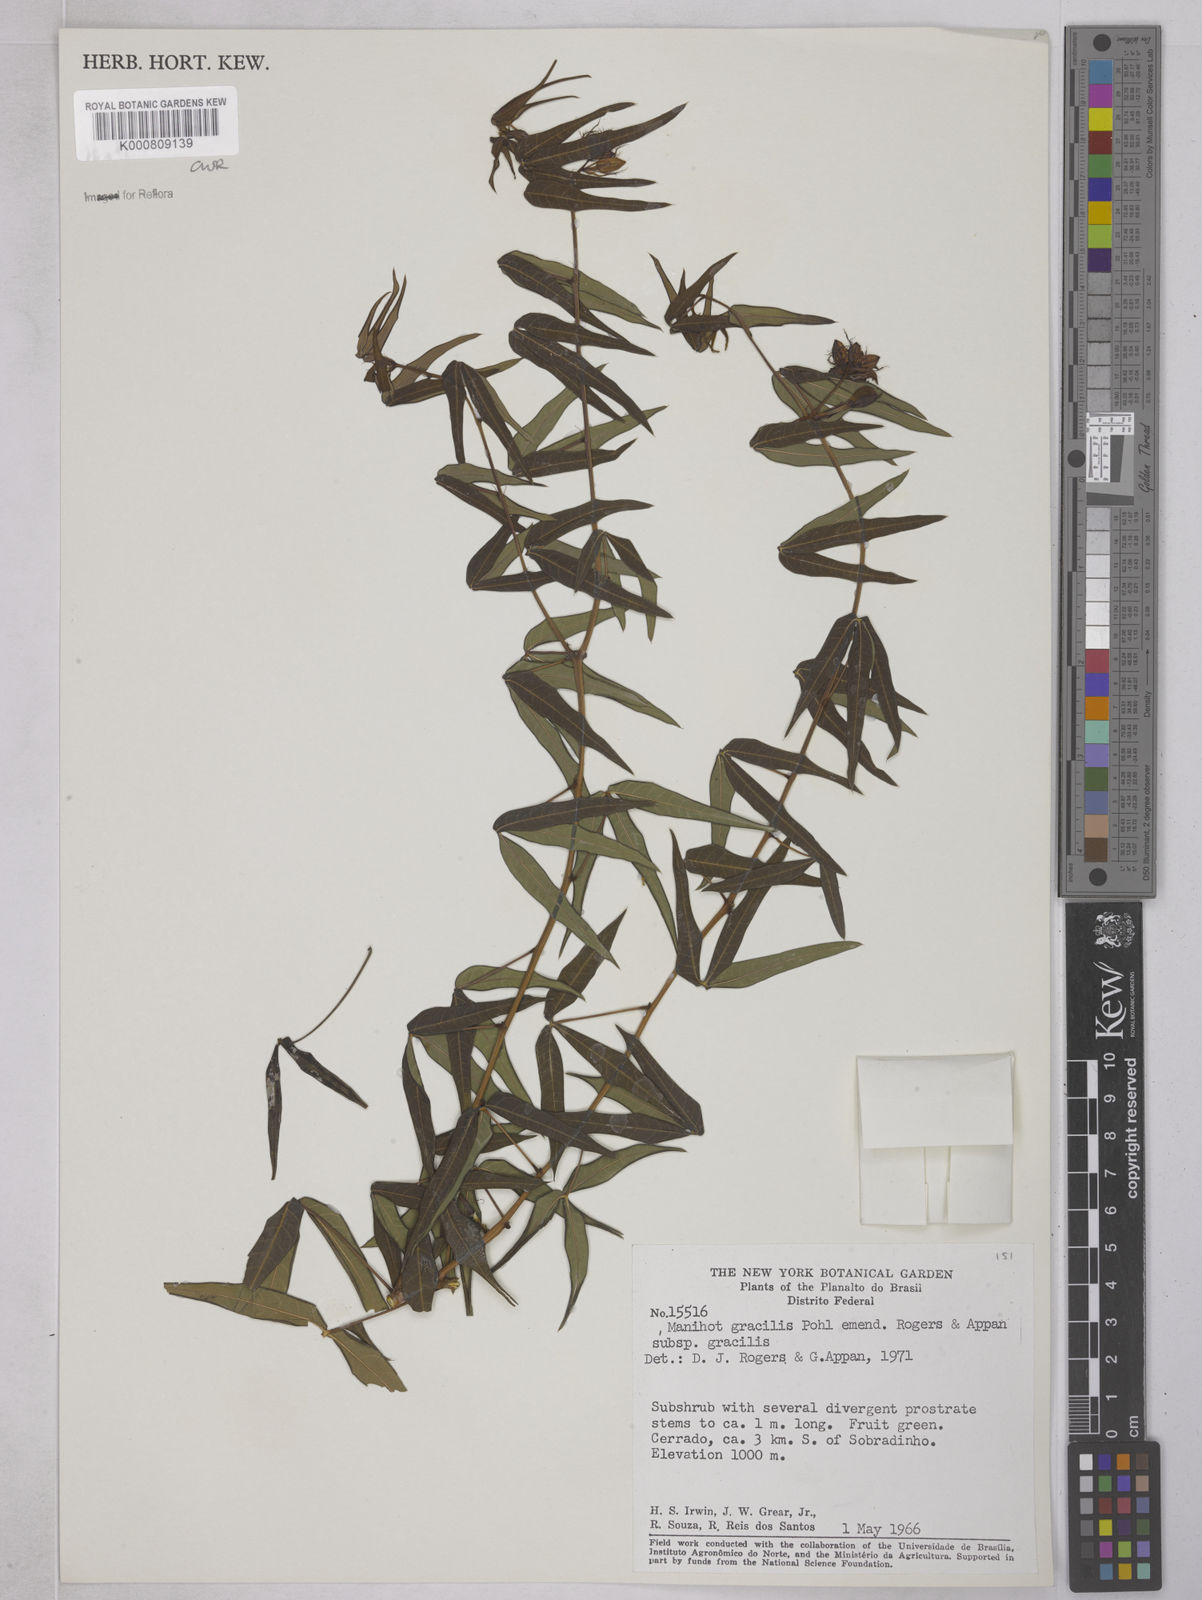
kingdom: Plantae
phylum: Tracheophyta
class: Magnoliopsida
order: Malpighiales
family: Euphorbiaceae
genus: Manihot
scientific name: Manihot gracilis
